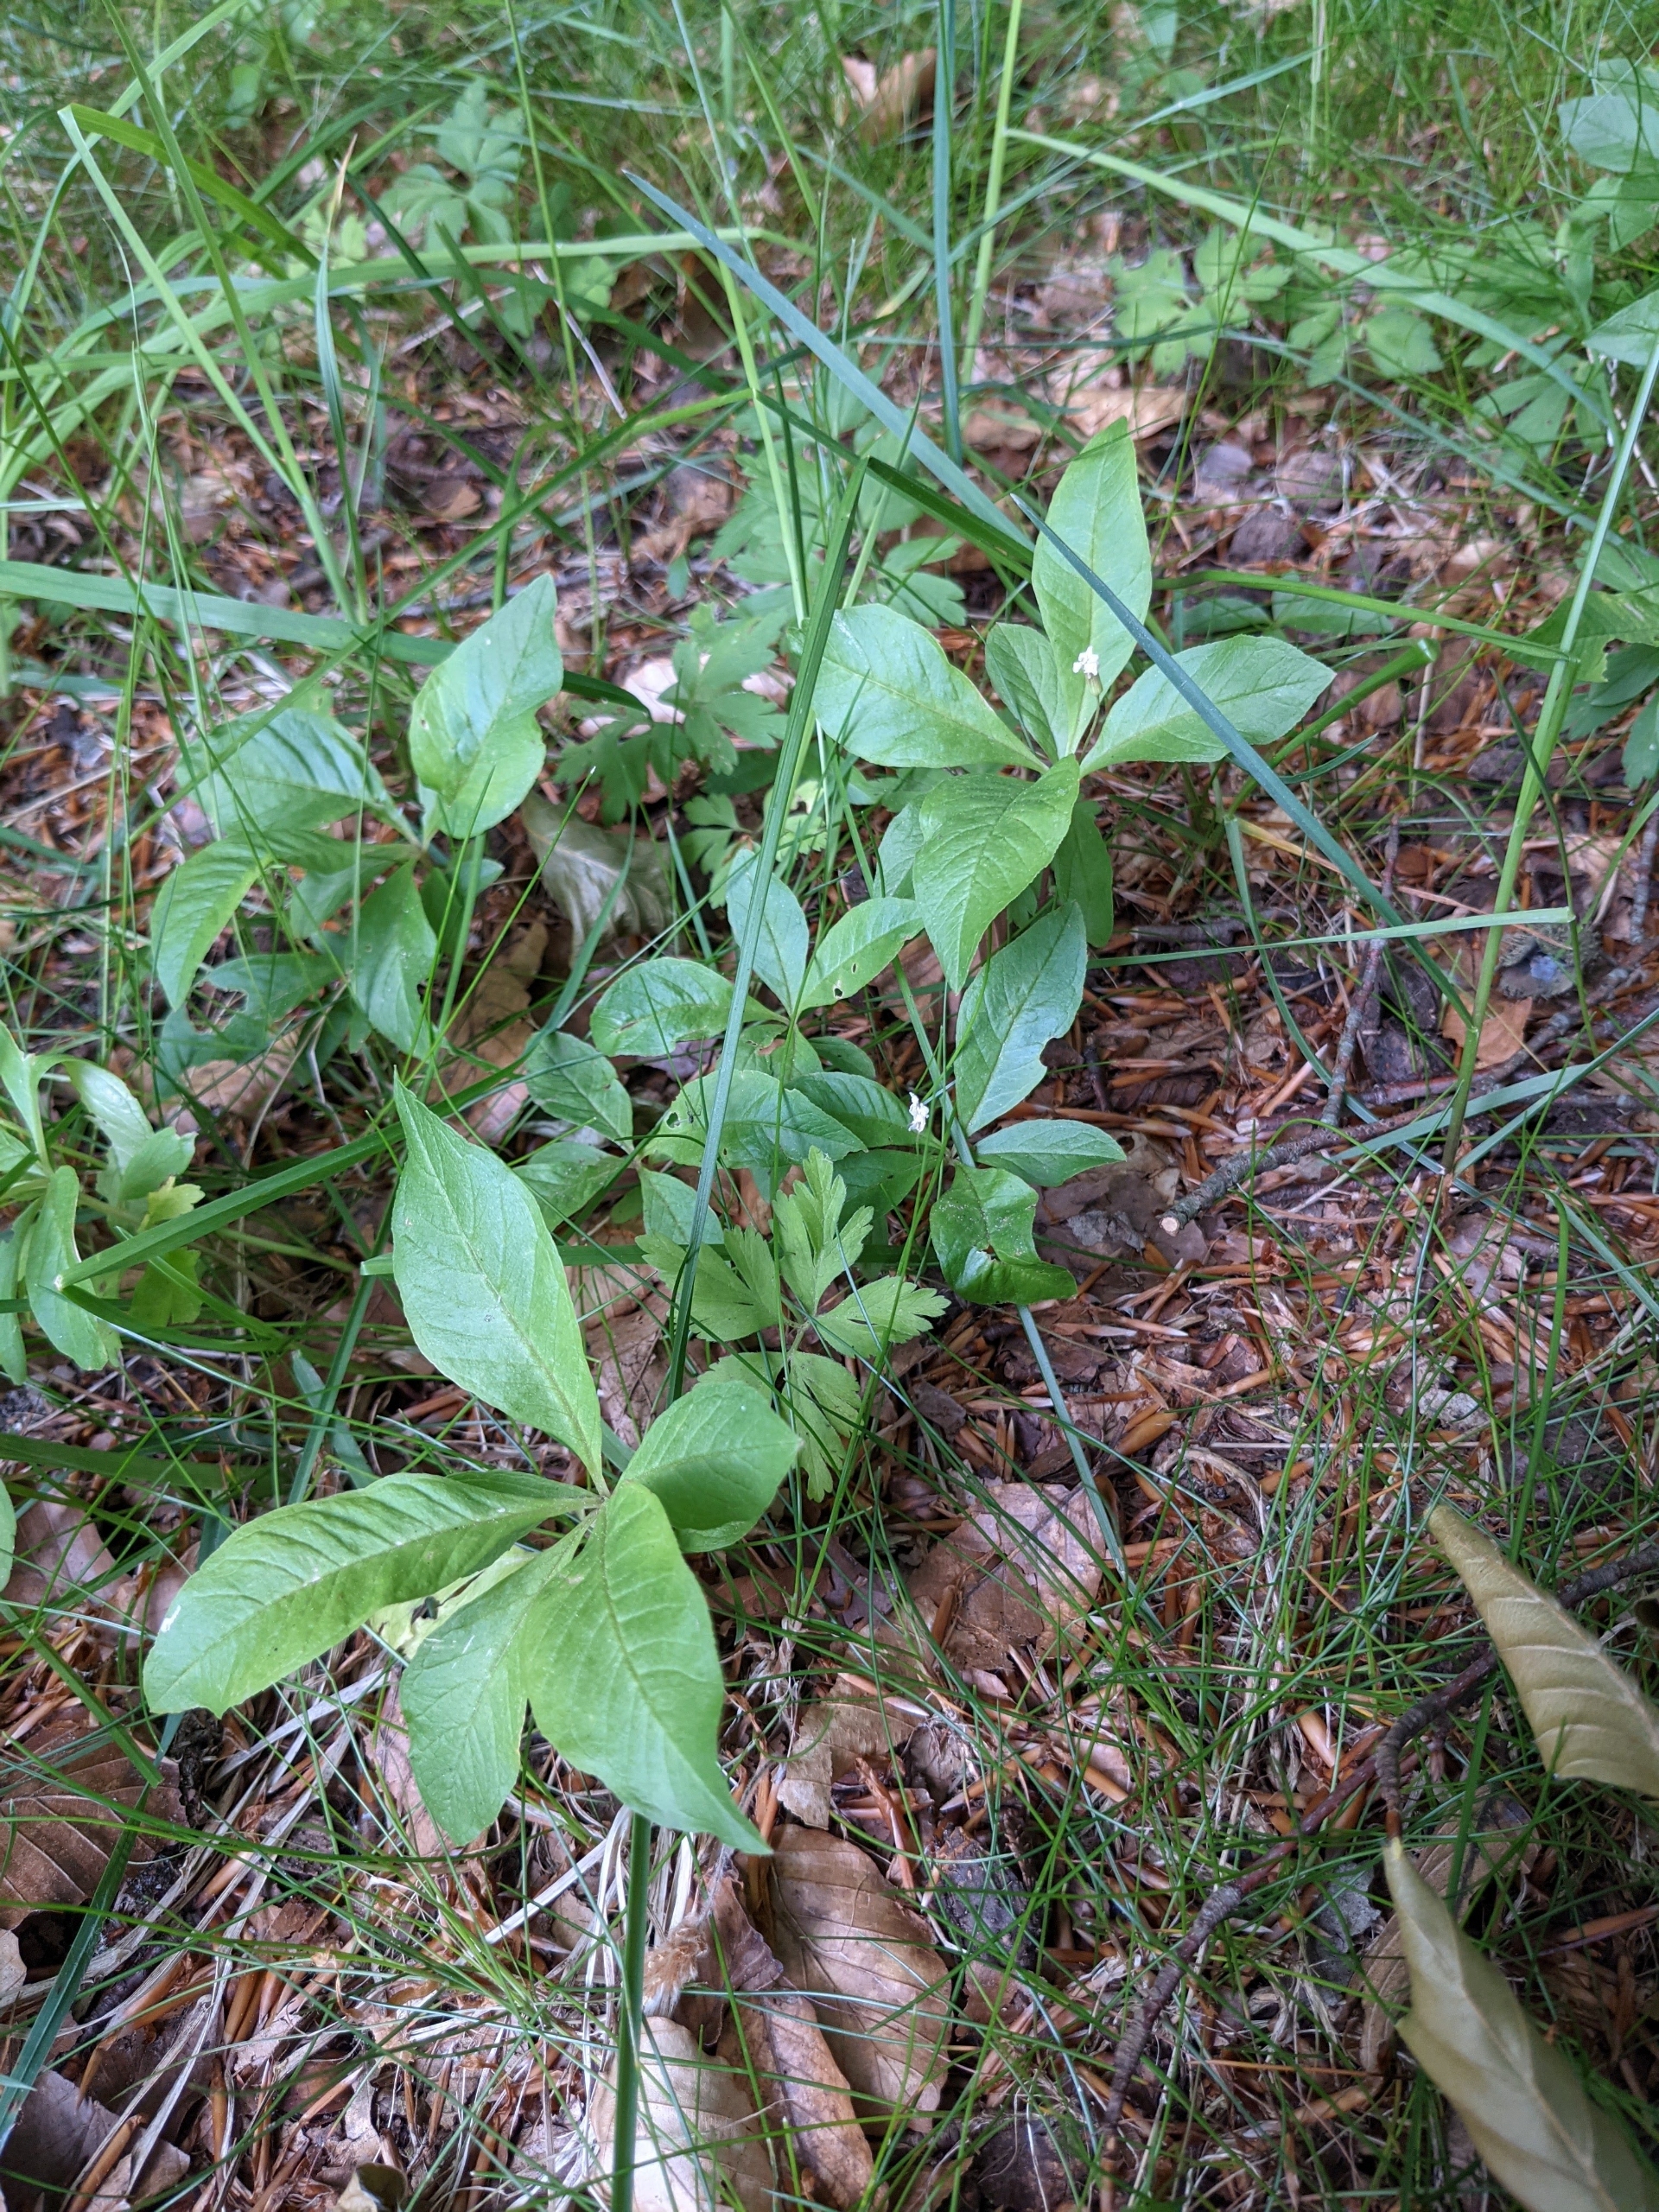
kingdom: Plantae
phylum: Tracheophyta
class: Magnoliopsida
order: Ericales
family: Primulaceae
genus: Lysimachia
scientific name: Lysimachia europaea
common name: Skovstjerne
